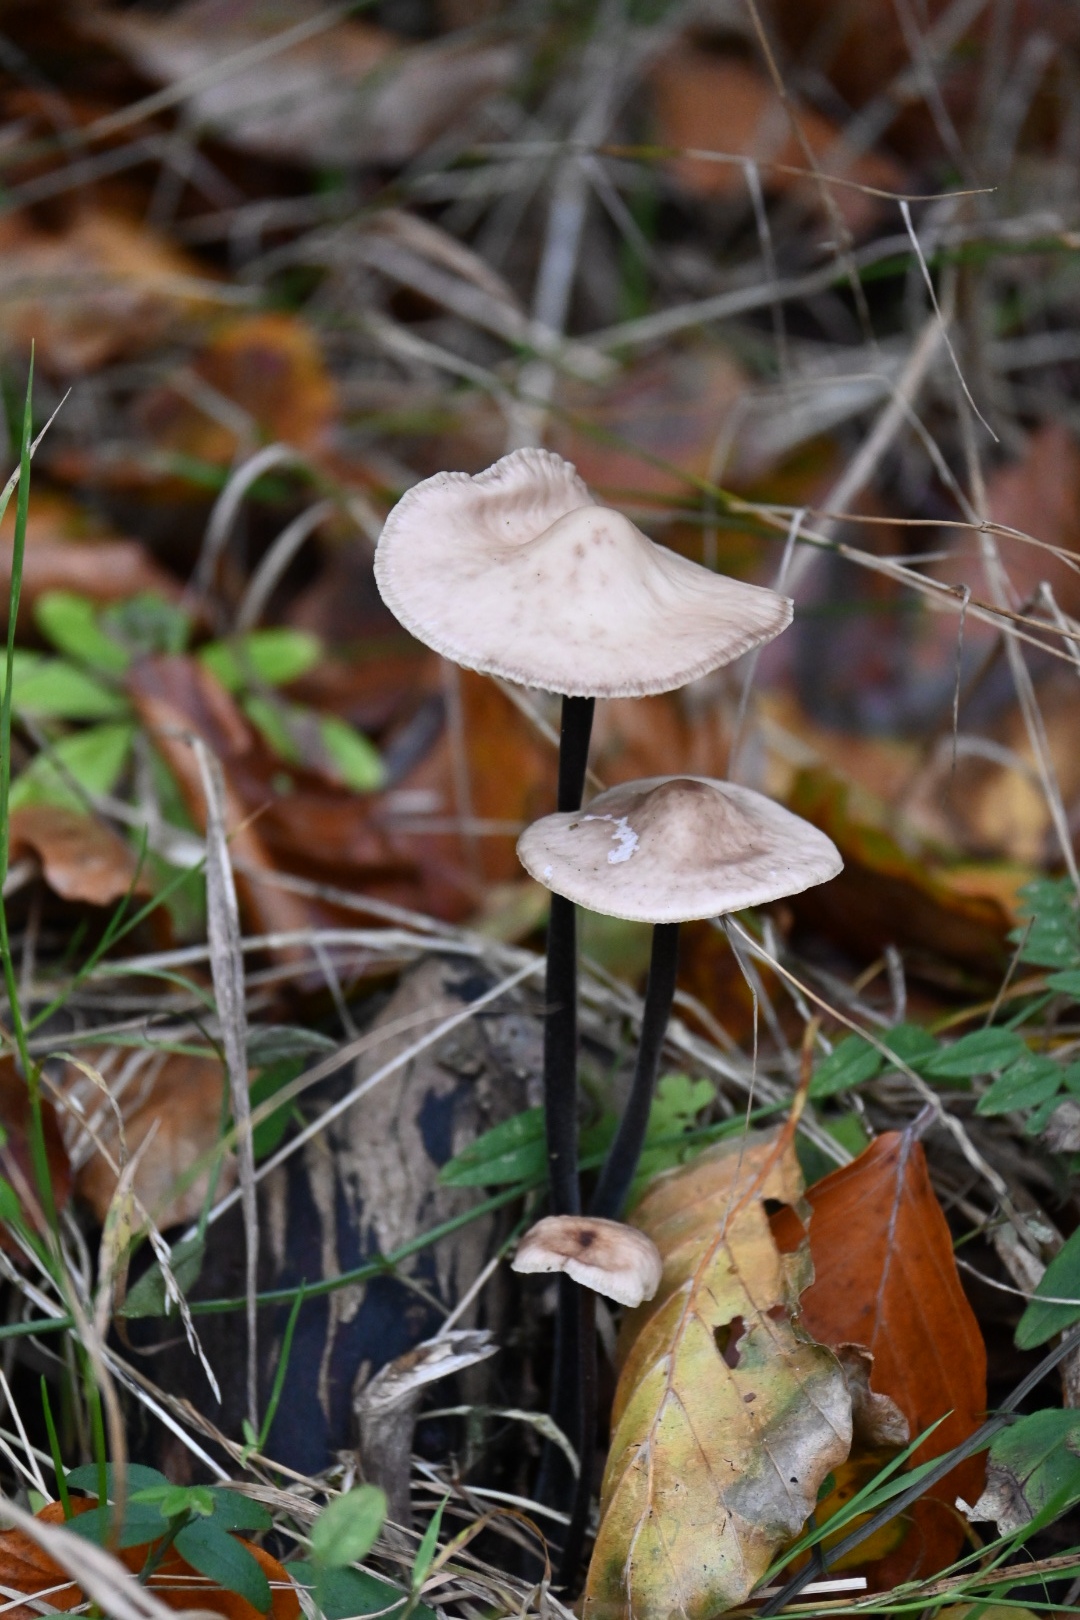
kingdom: Fungi
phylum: Basidiomycota
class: Agaricomycetes
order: Agaricales
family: Omphalotaceae
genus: Mycetinis
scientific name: Mycetinis alliaceus
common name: stor løghat
